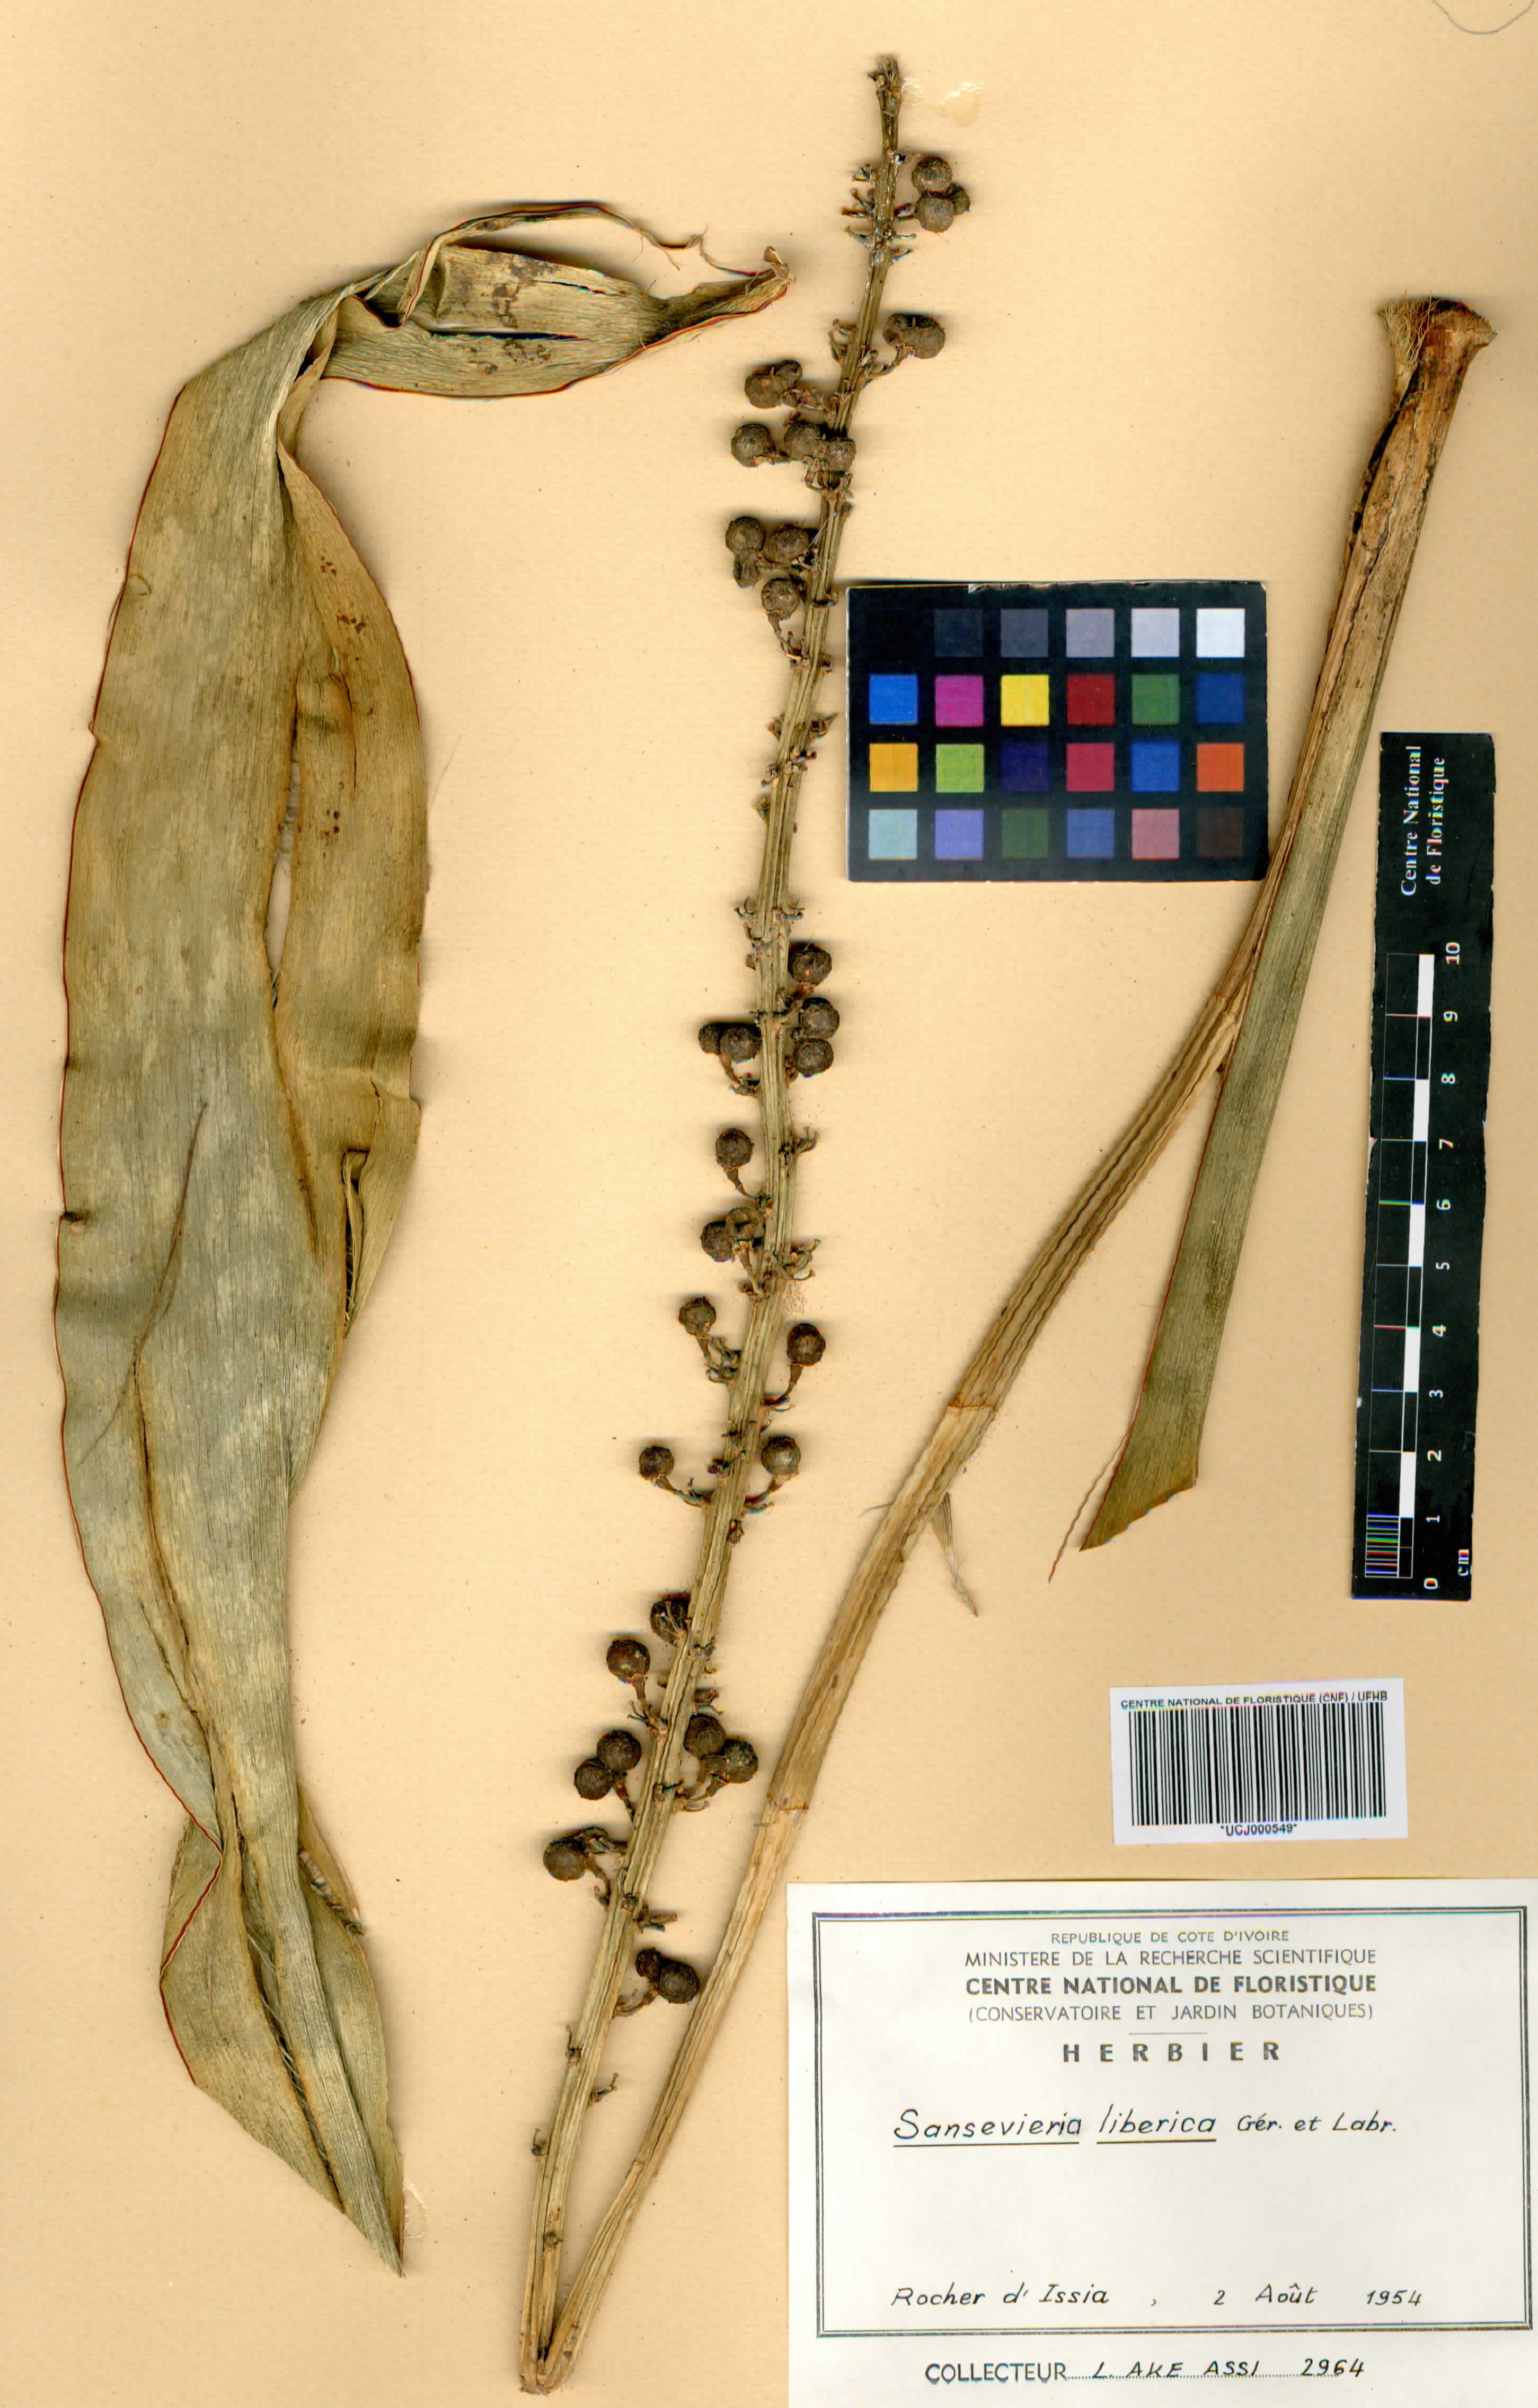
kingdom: Plantae
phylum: Tracheophyta
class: Liliopsida
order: Asparagales
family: Asparagaceae
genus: Dracaena
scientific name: Dracaena liberica
